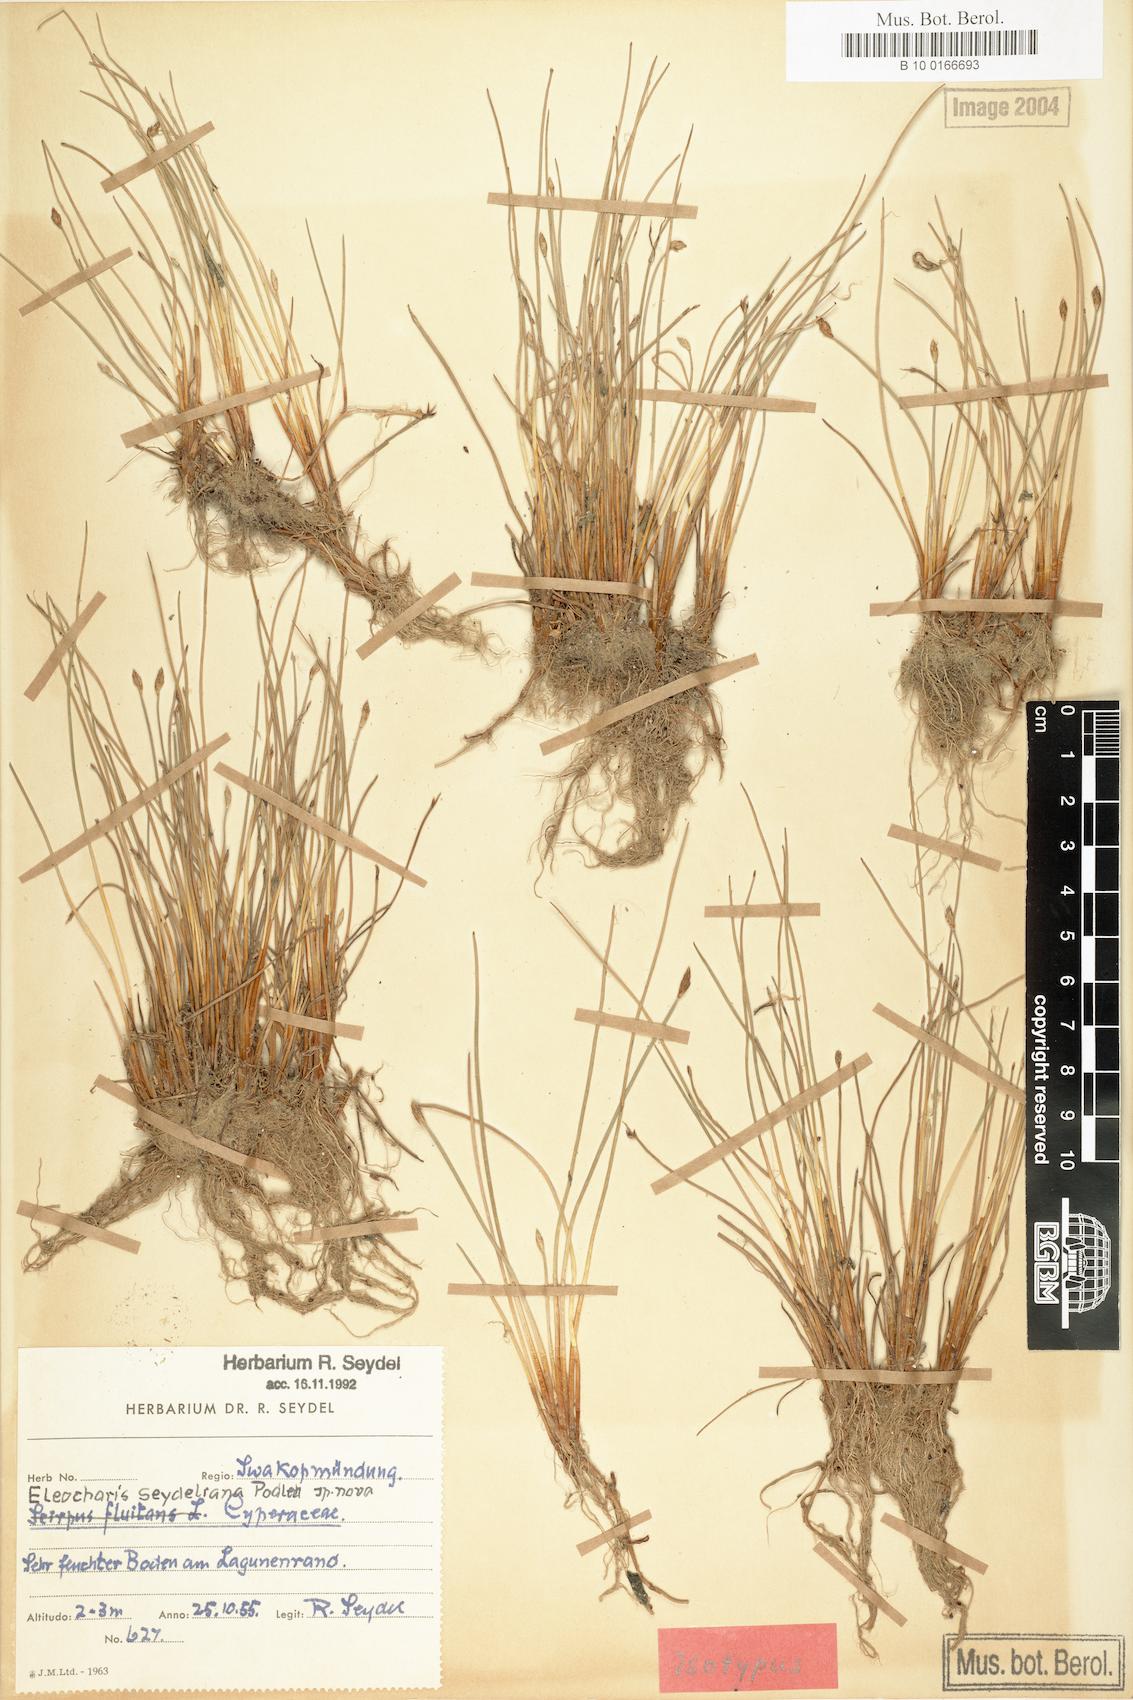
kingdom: Plantae
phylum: Tracheophyta
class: Liliopsida
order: Poales
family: Cyperaceae
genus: Eleocharis
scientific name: Eleocharis schlechteri
